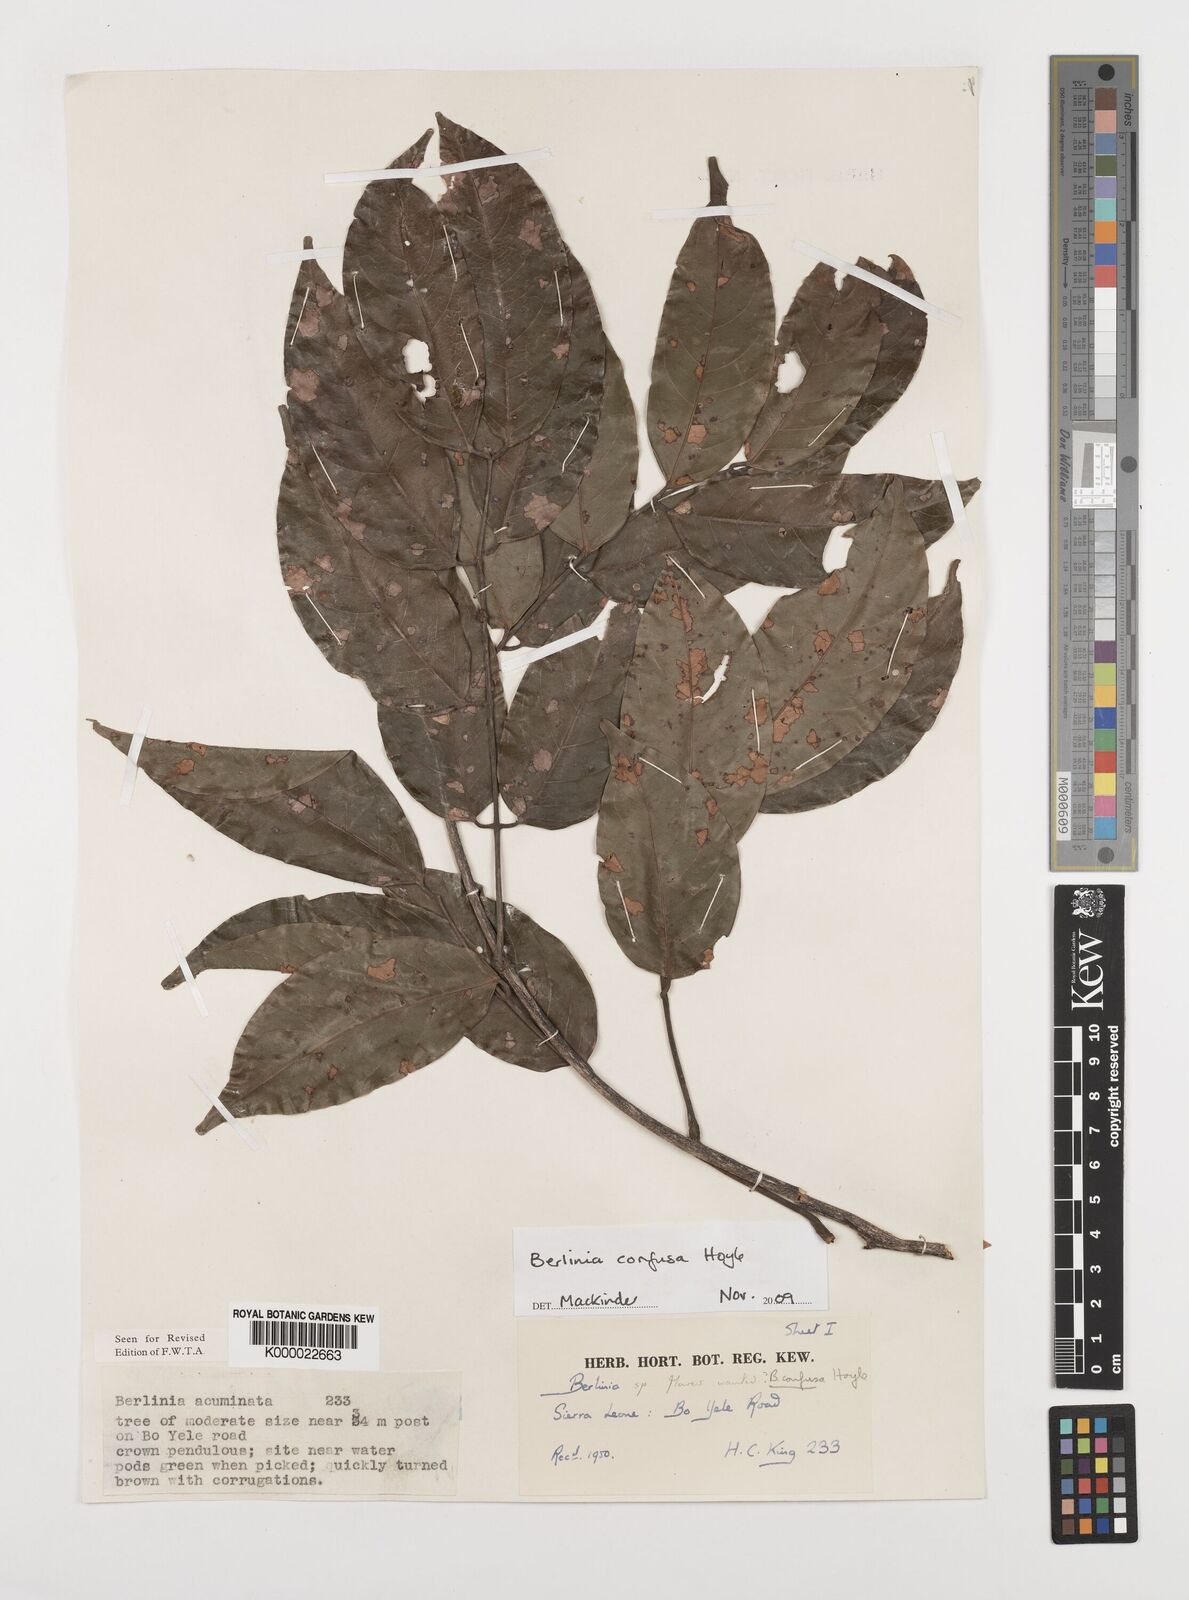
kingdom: Plantae
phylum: Tracheophyta
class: Magnoliopsida
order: Fabales
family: Fabaceae
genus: Berlinia
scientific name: Berlinia confusa
